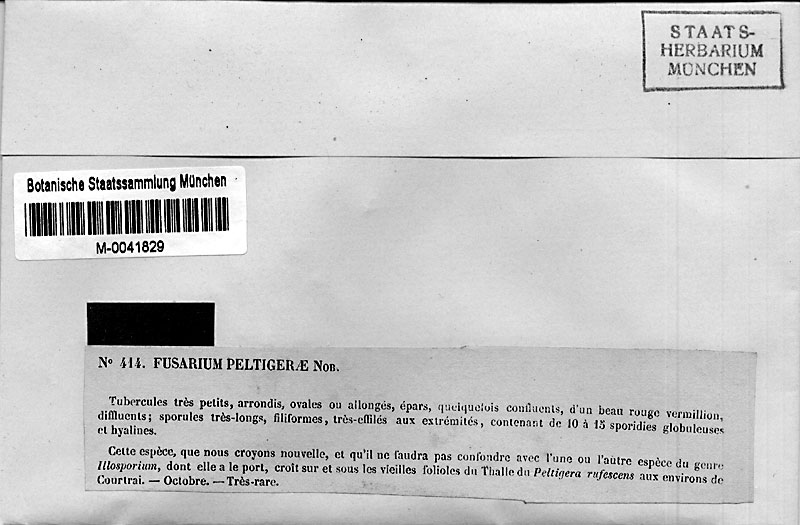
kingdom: Fungi
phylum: Ascomycota
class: Sordariomycetes
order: Hypocreales
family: Nectriaceae
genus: Fusarium
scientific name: Fusarium peltigerae
